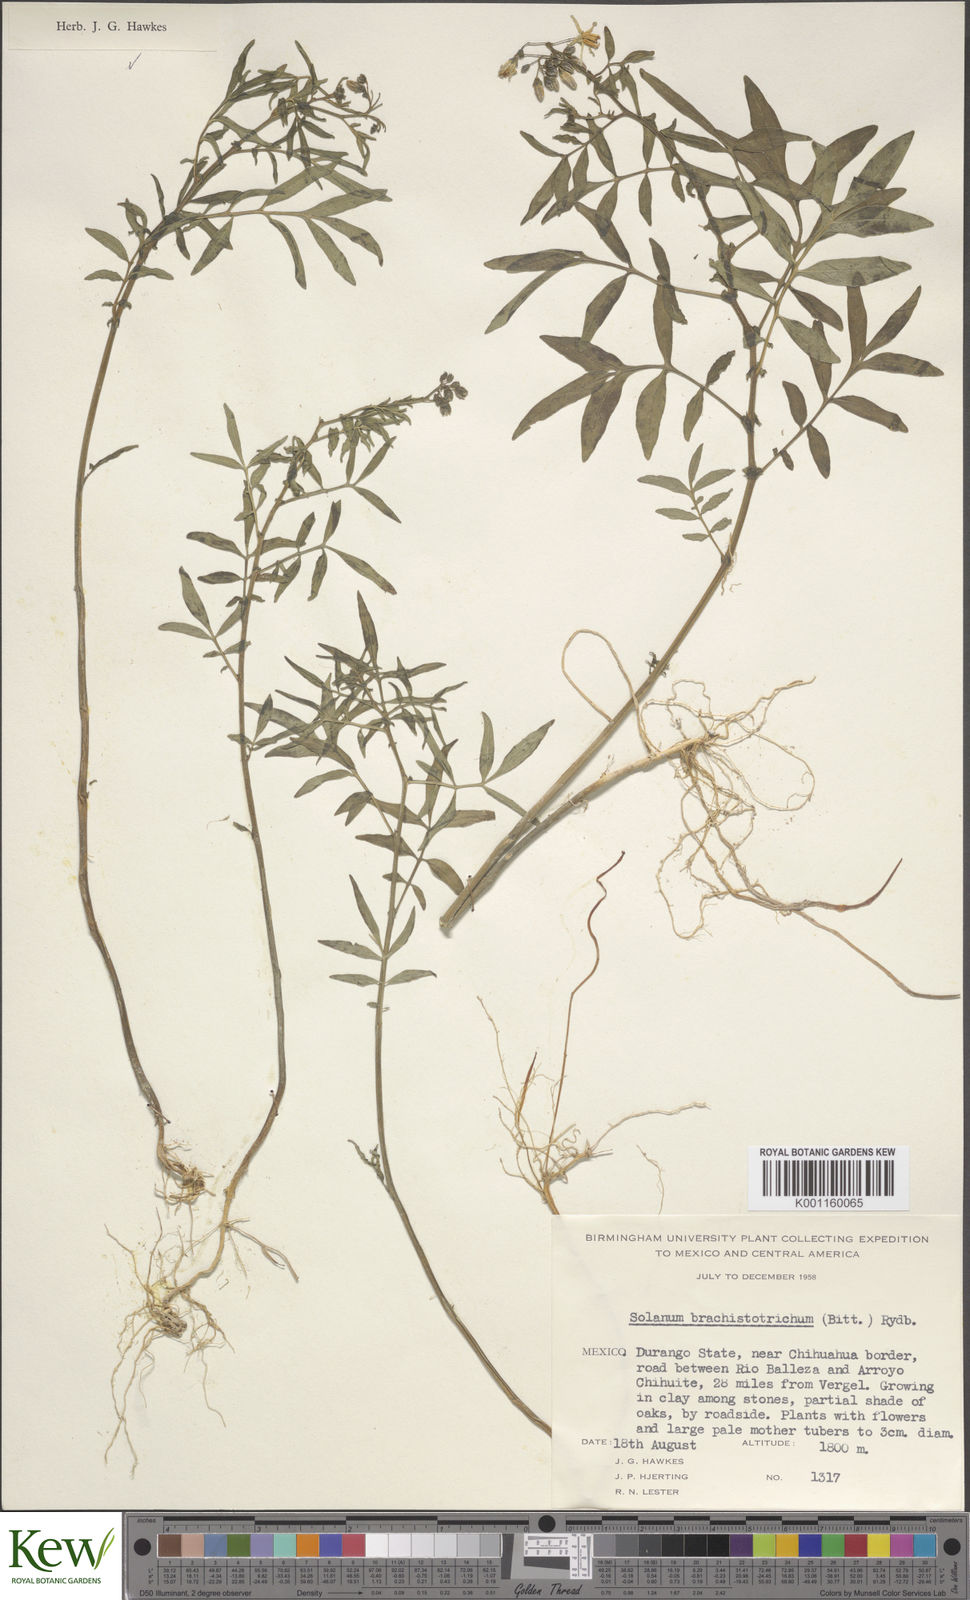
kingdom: Plantae
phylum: Tracheophyta
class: Magnoliopsida
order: Solanales
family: Solanaceae
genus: Solanum
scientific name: Solanum
